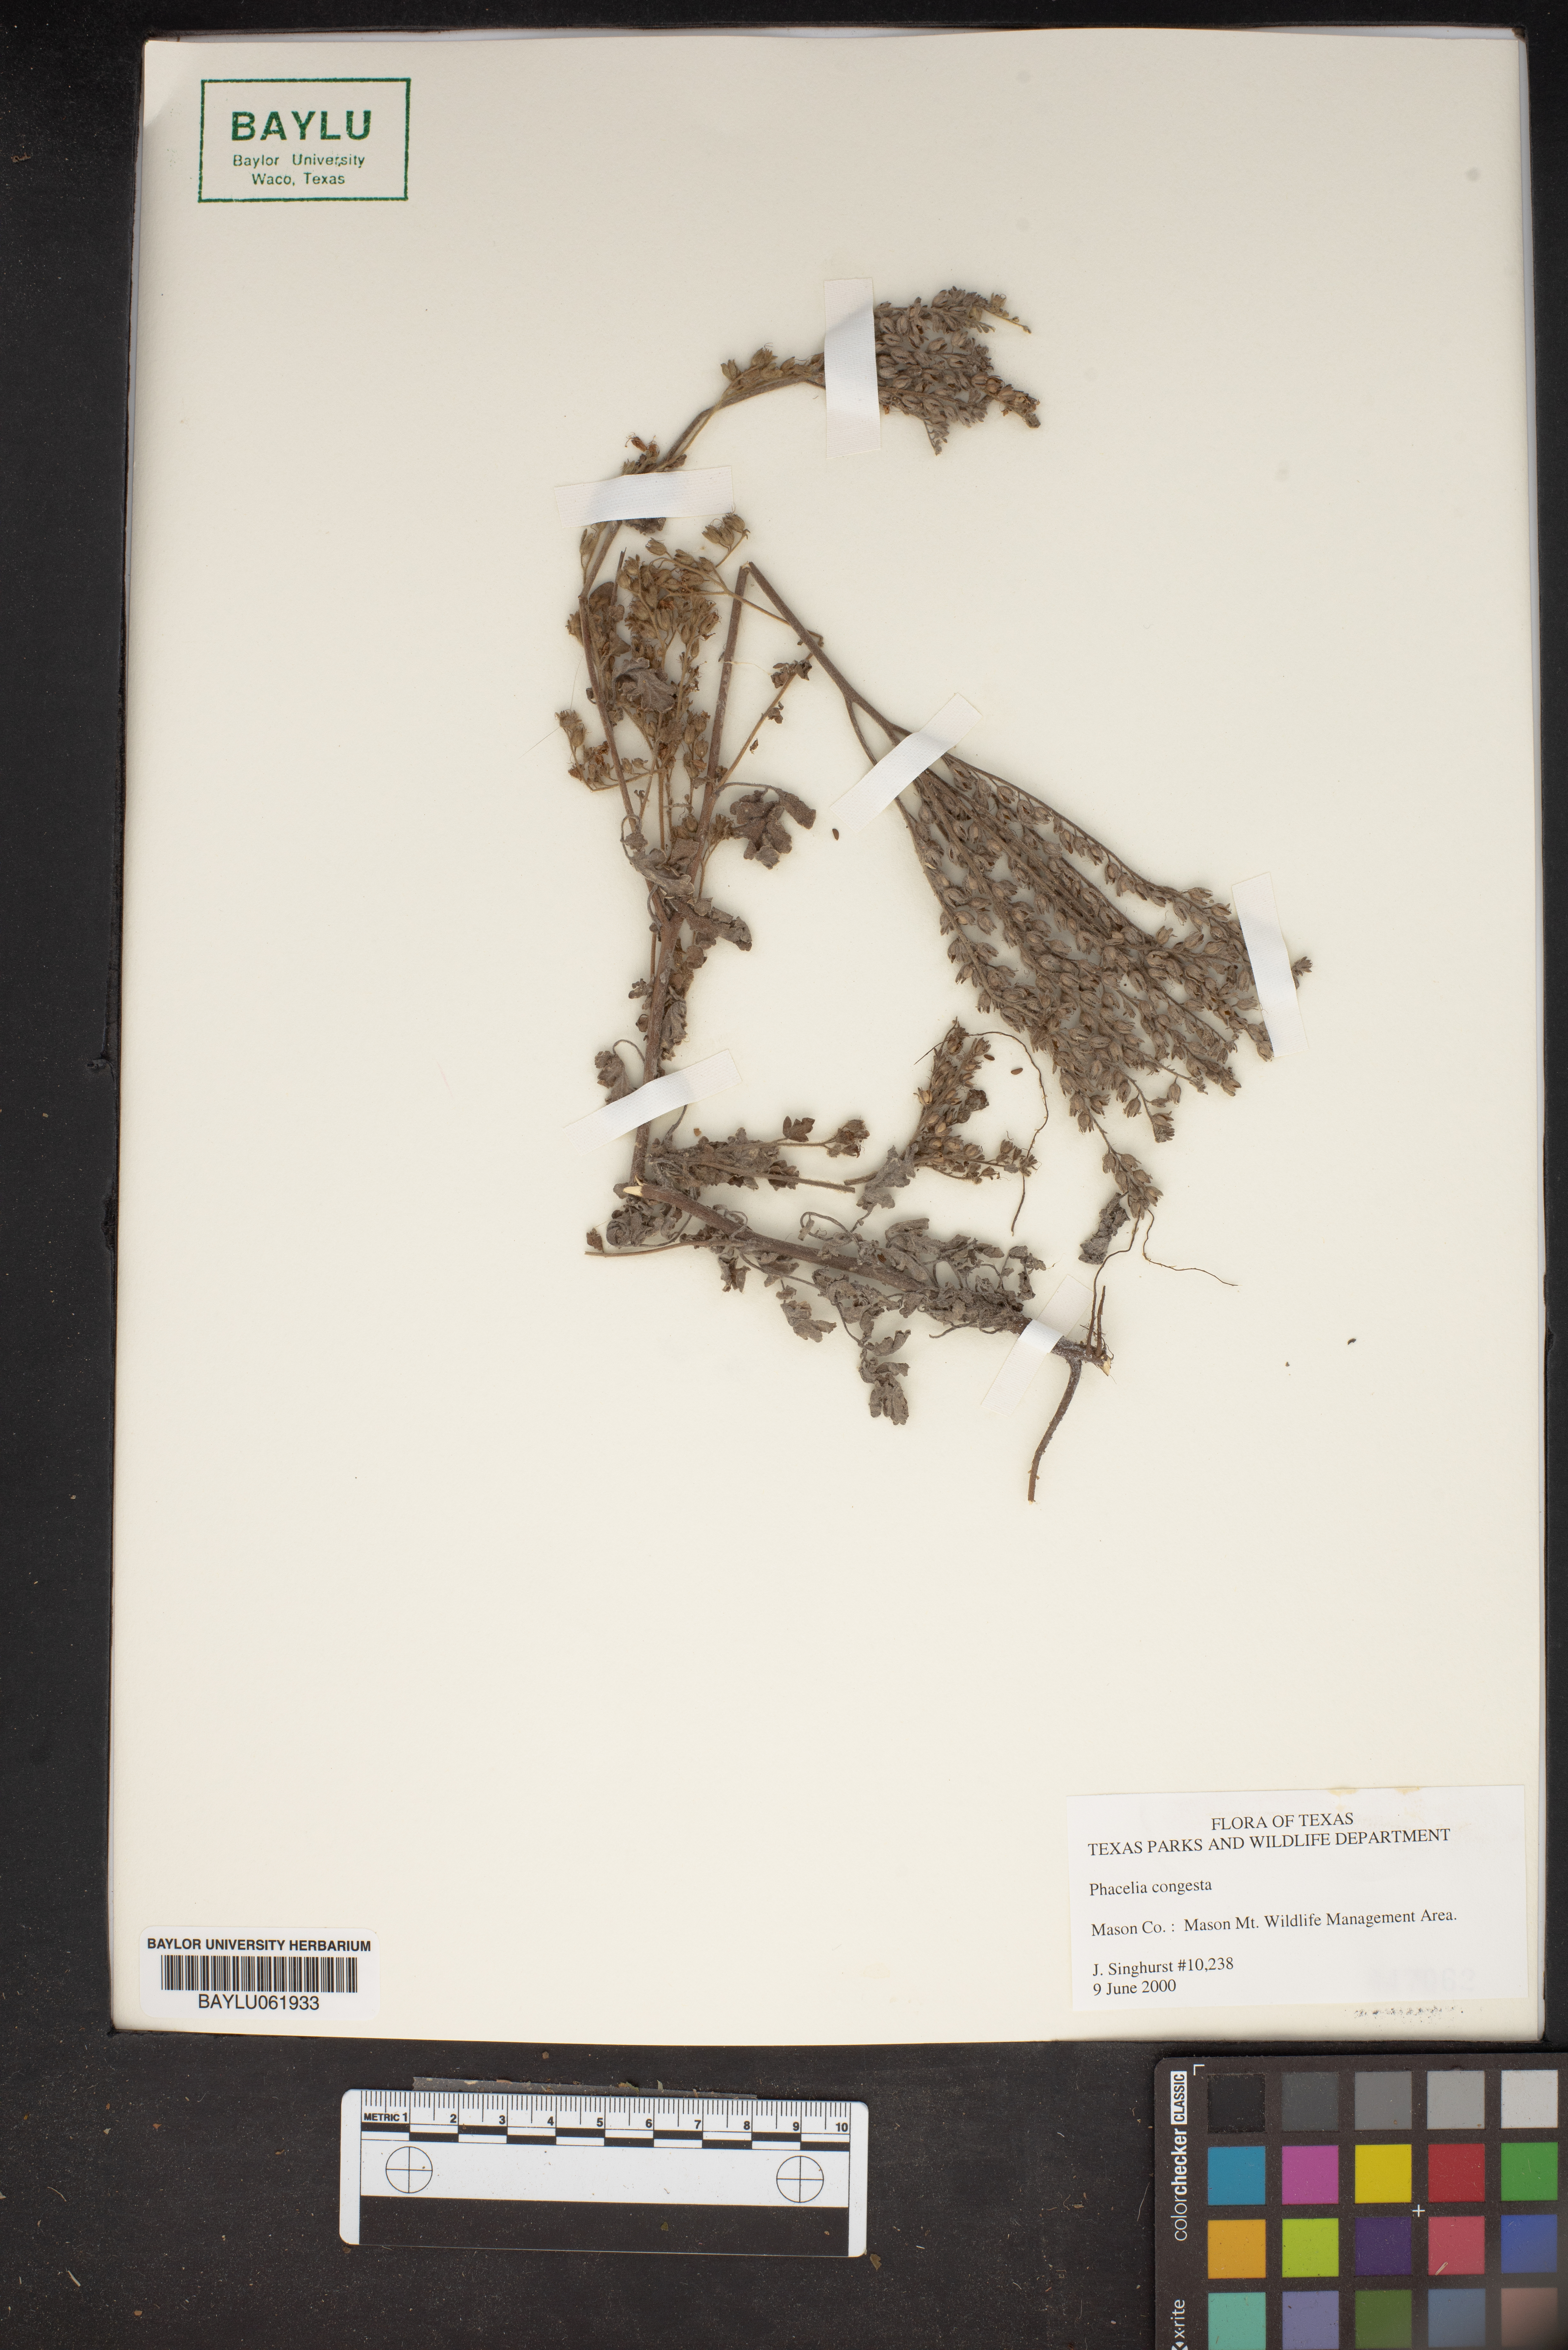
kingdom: Plantae
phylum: Tracheophyta
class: Magnoliopsida
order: Boraginales
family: Hydrophyllaceae
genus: Phacelia
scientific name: Phacelia congesta
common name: Blue curls
